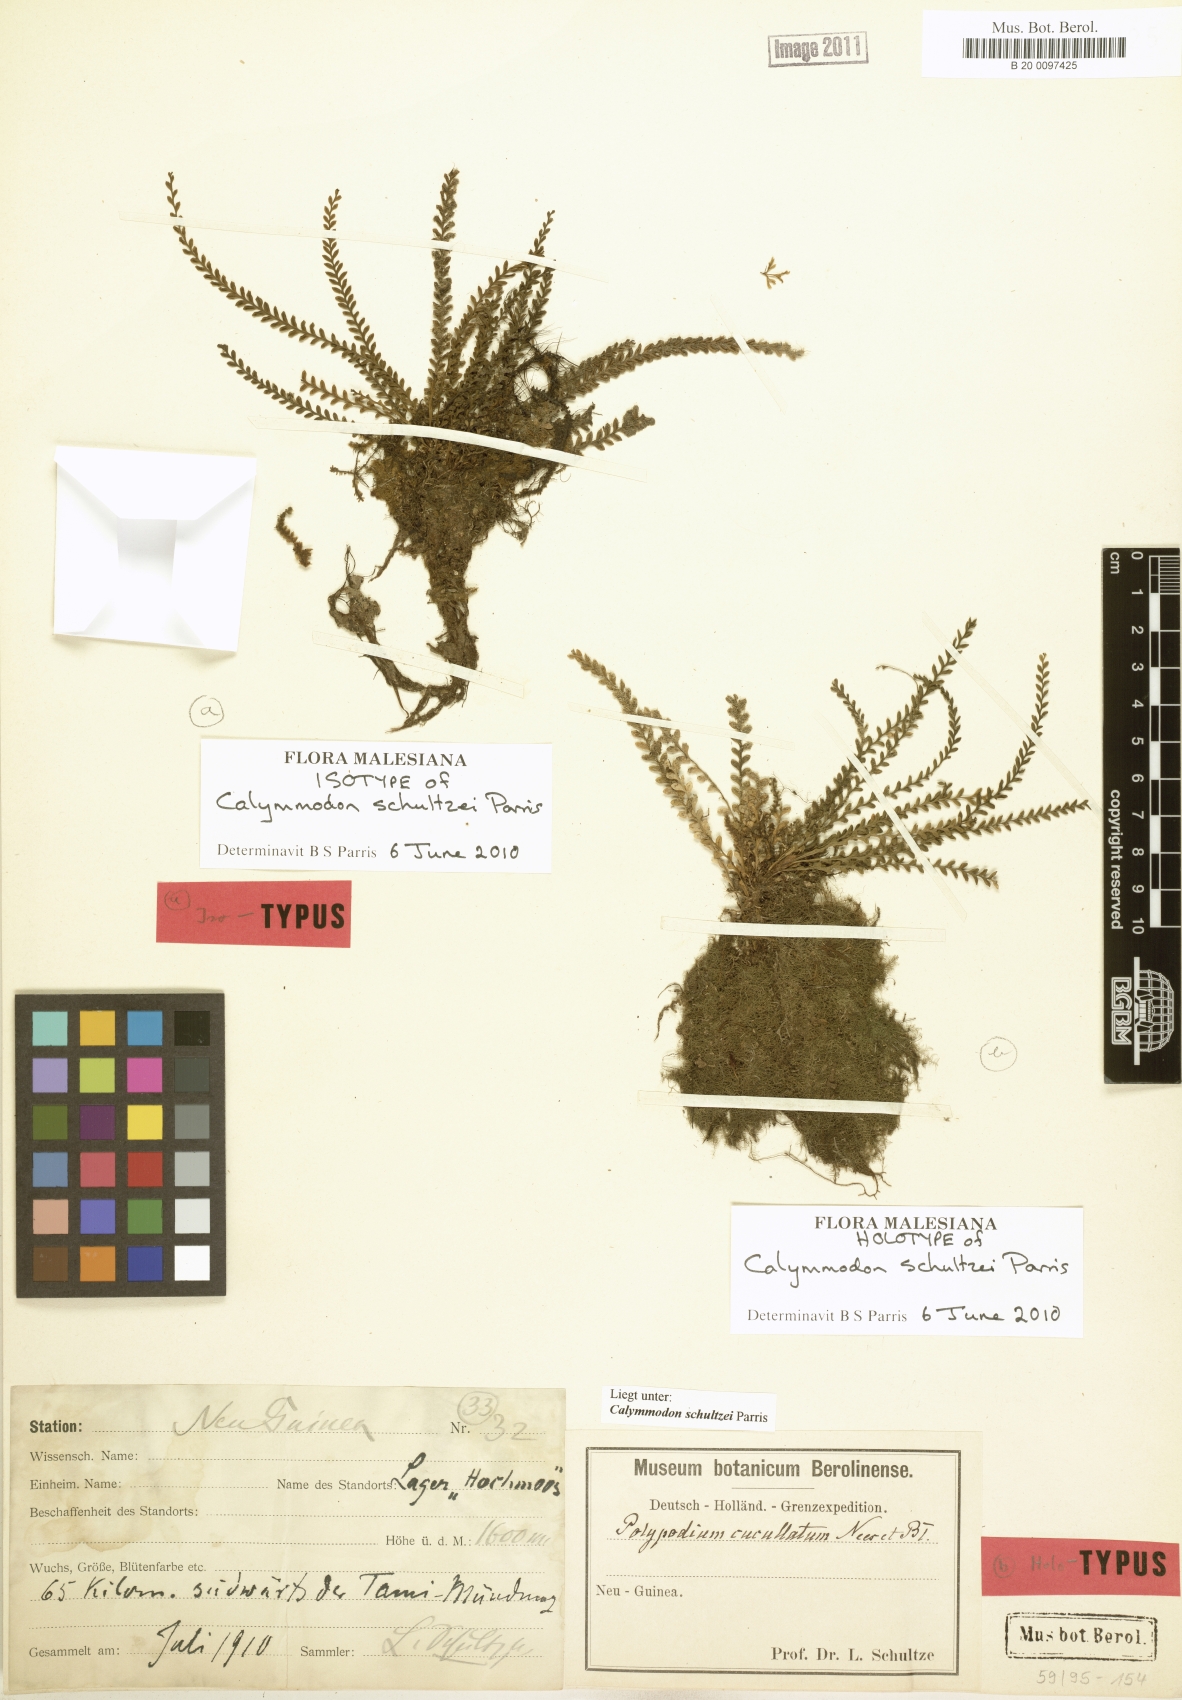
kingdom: Plantae
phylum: Tracheophyta
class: Polypodiopsida
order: Polypodiales
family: Polypodiaceae
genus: Calymmodon
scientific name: Calymmodon schultzei
